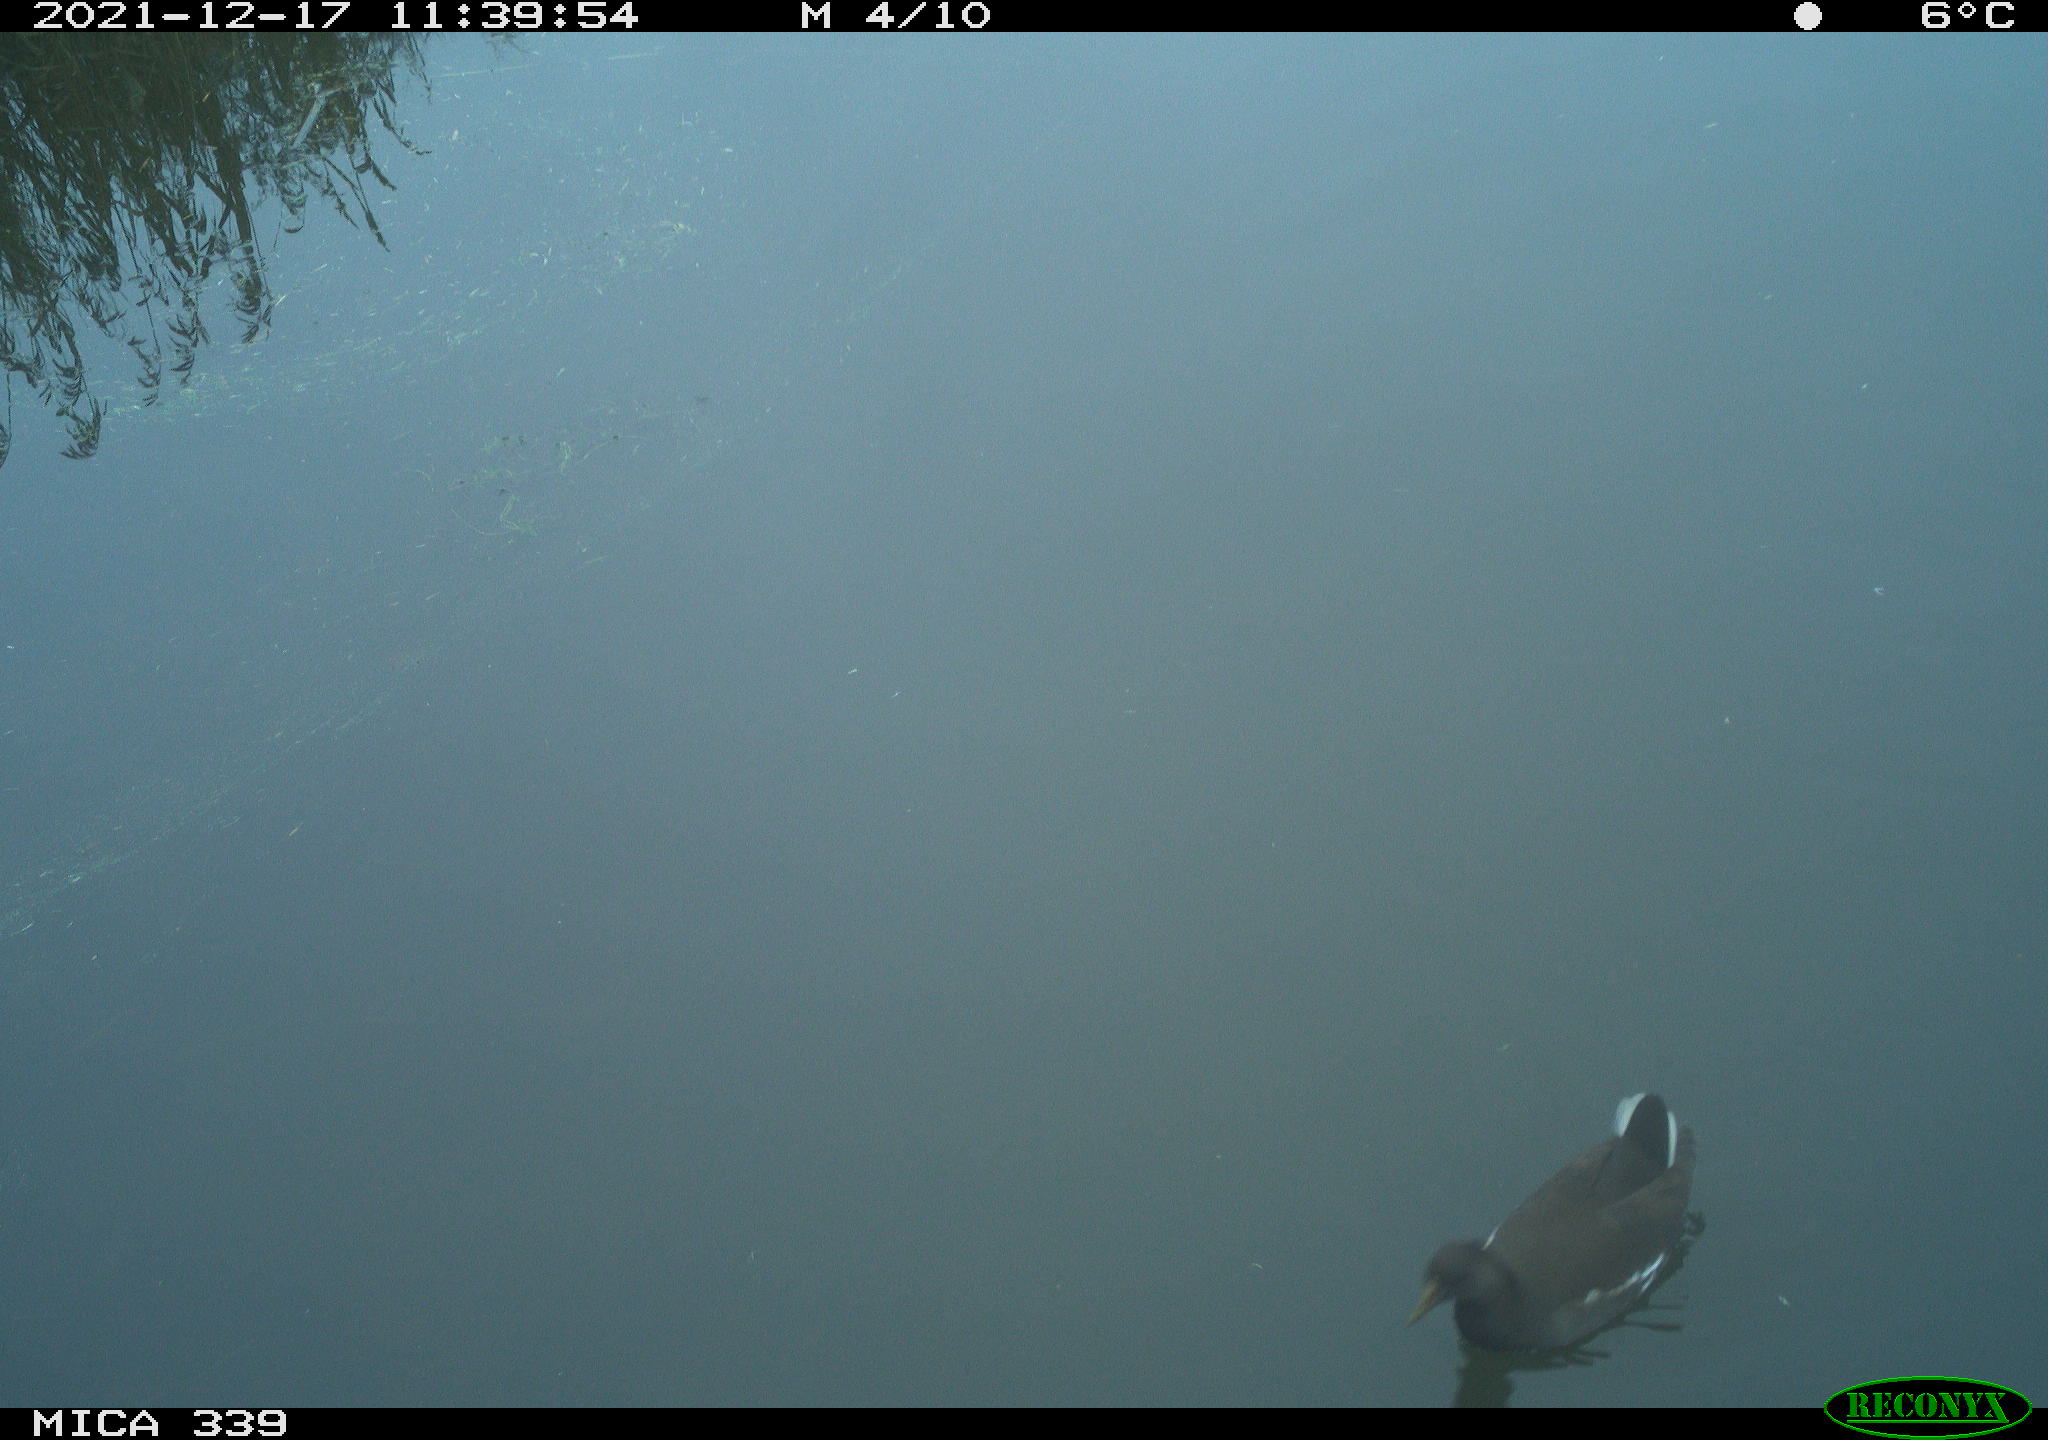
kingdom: Animalia
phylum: Chordata
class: Aves
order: Gruiformes
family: Rallidae
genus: Gallinula
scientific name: Gallinula chloropus
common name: Common moorhen
